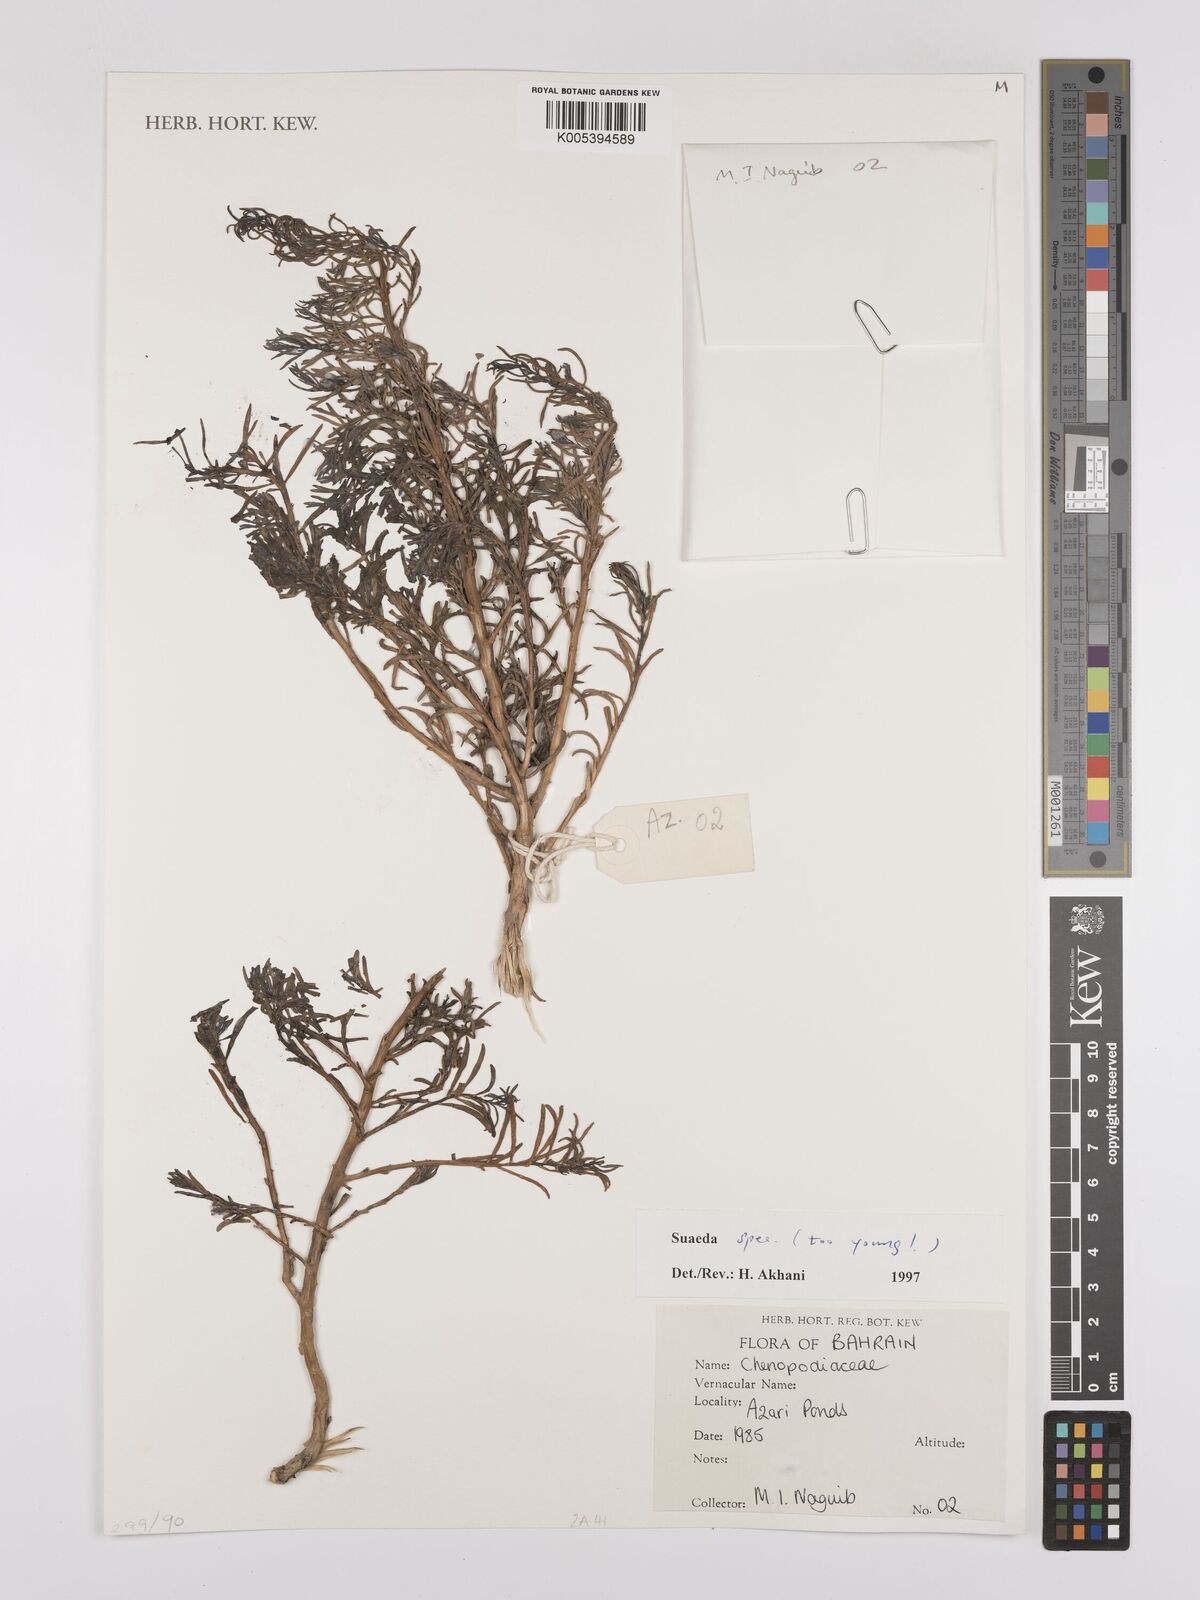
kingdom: Plantae
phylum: Tracheophyta
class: Magnoliopsida
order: Caryophyllales
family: Amaranthaceae
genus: Suaeda
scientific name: Suaeda
